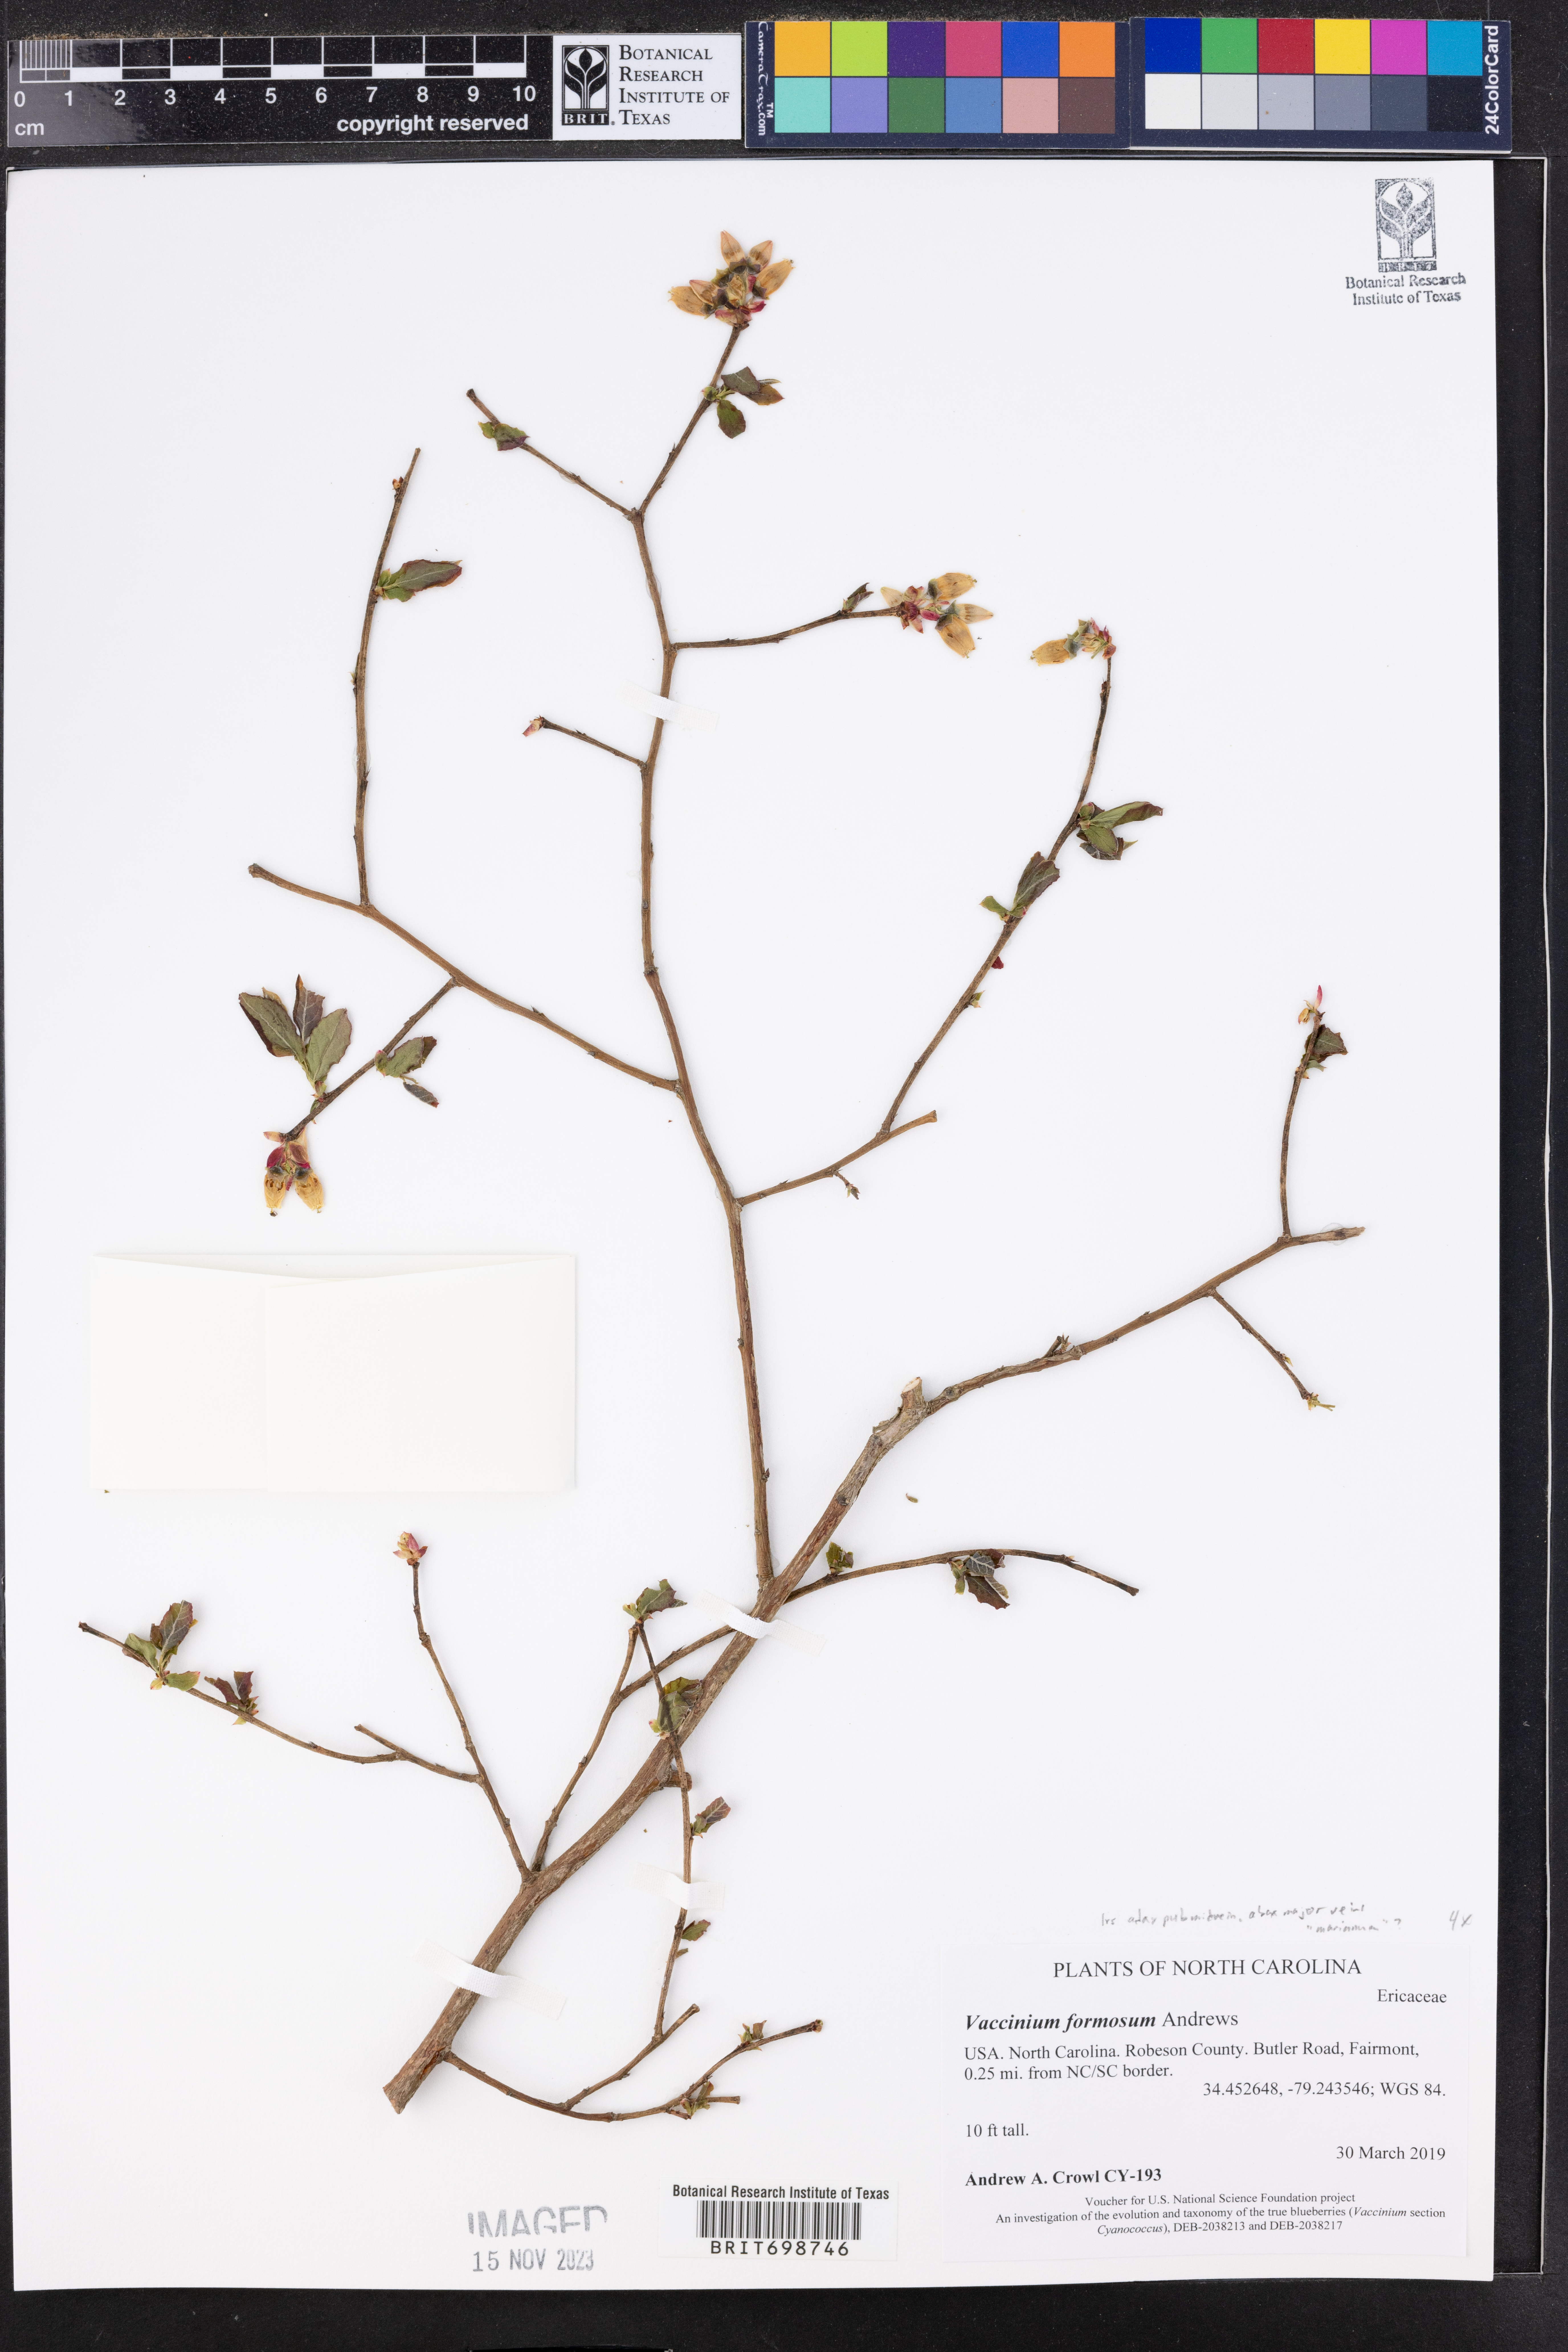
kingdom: Plantae
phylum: Tracheophyta
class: Magnoliopsida
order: Ericales
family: Ericaceae
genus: Vaccinium
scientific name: Vaccinium corymbosum
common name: Blueberry
